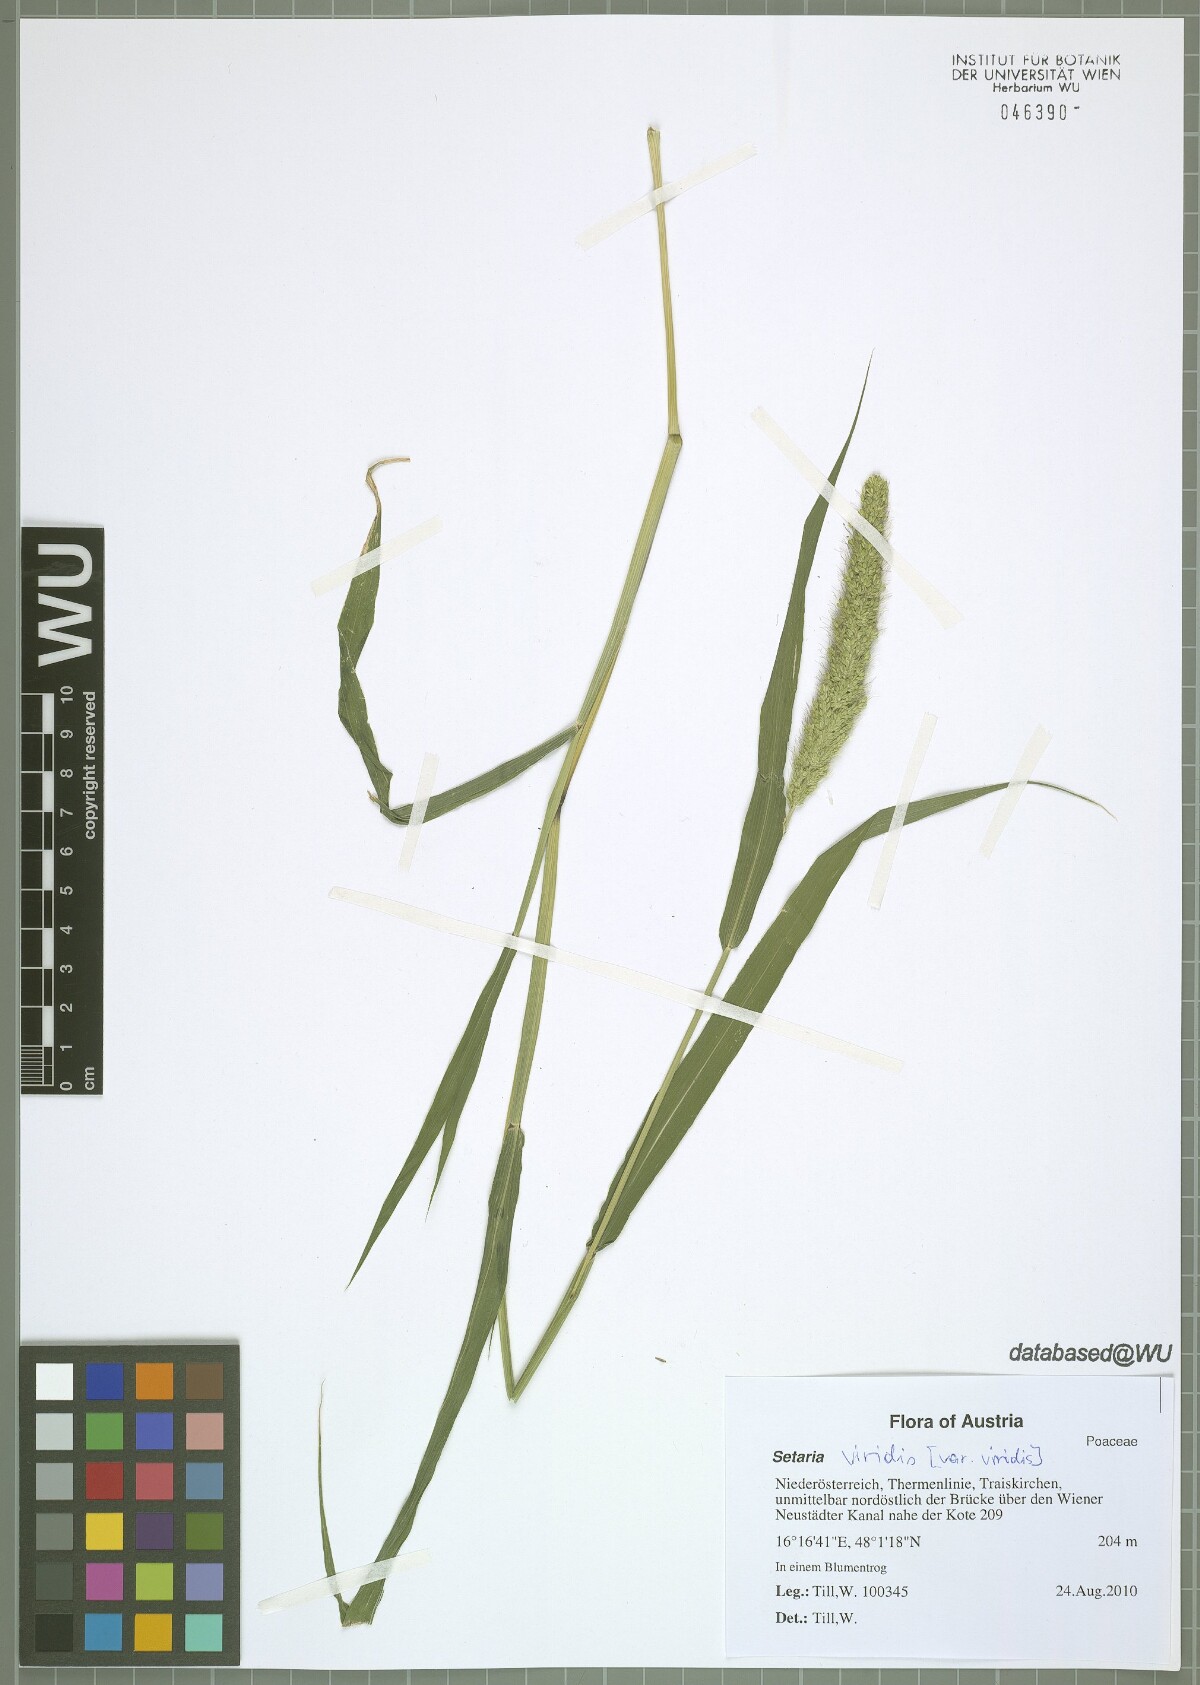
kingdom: Plantae
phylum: Tracheophyta
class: Liliopsida
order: Poales
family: Poaceae
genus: Setaria
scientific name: Setaria viridis
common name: Green bristlegrass
